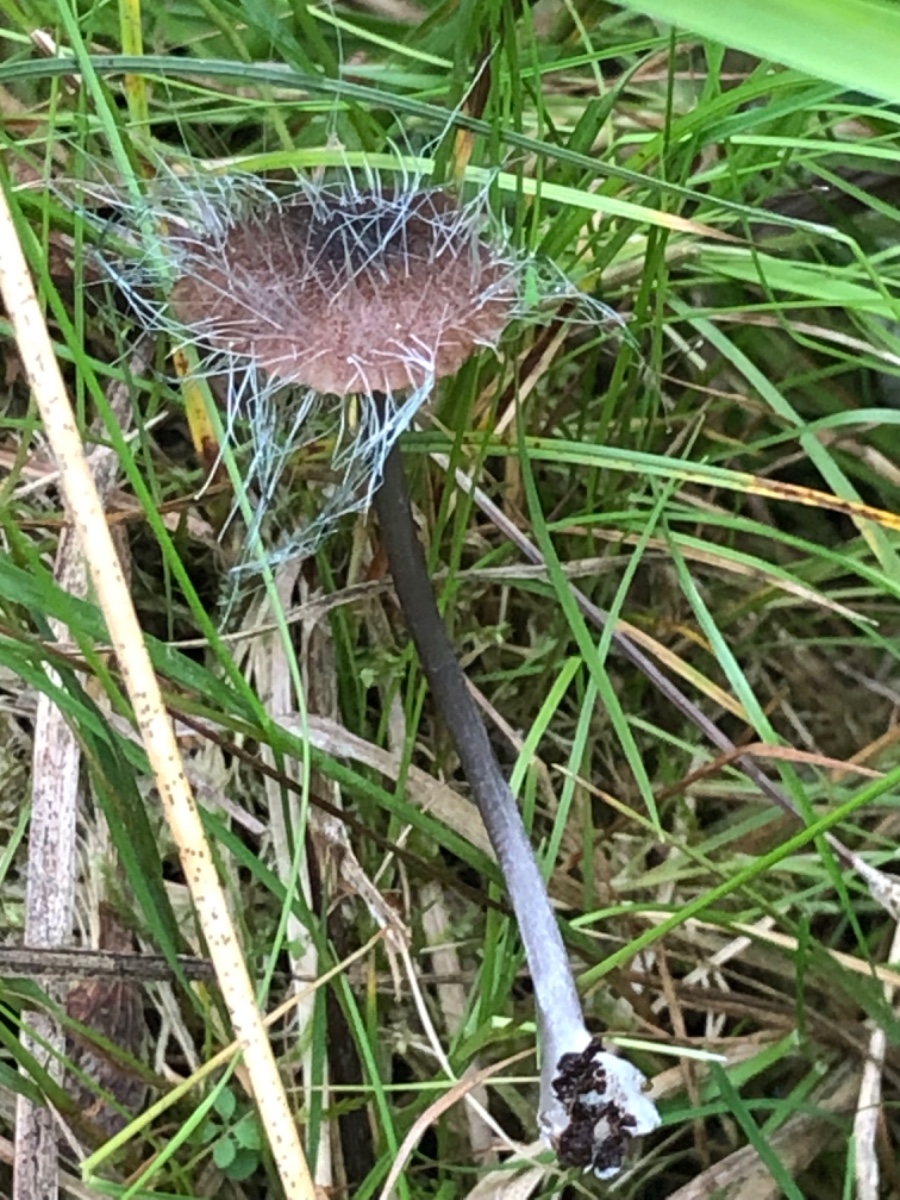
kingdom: Fungi
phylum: Mucoromycota
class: Mucoromycetes
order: Mucorales
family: Phycomycetaceae
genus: Spinellus
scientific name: Spinellus fusiger
